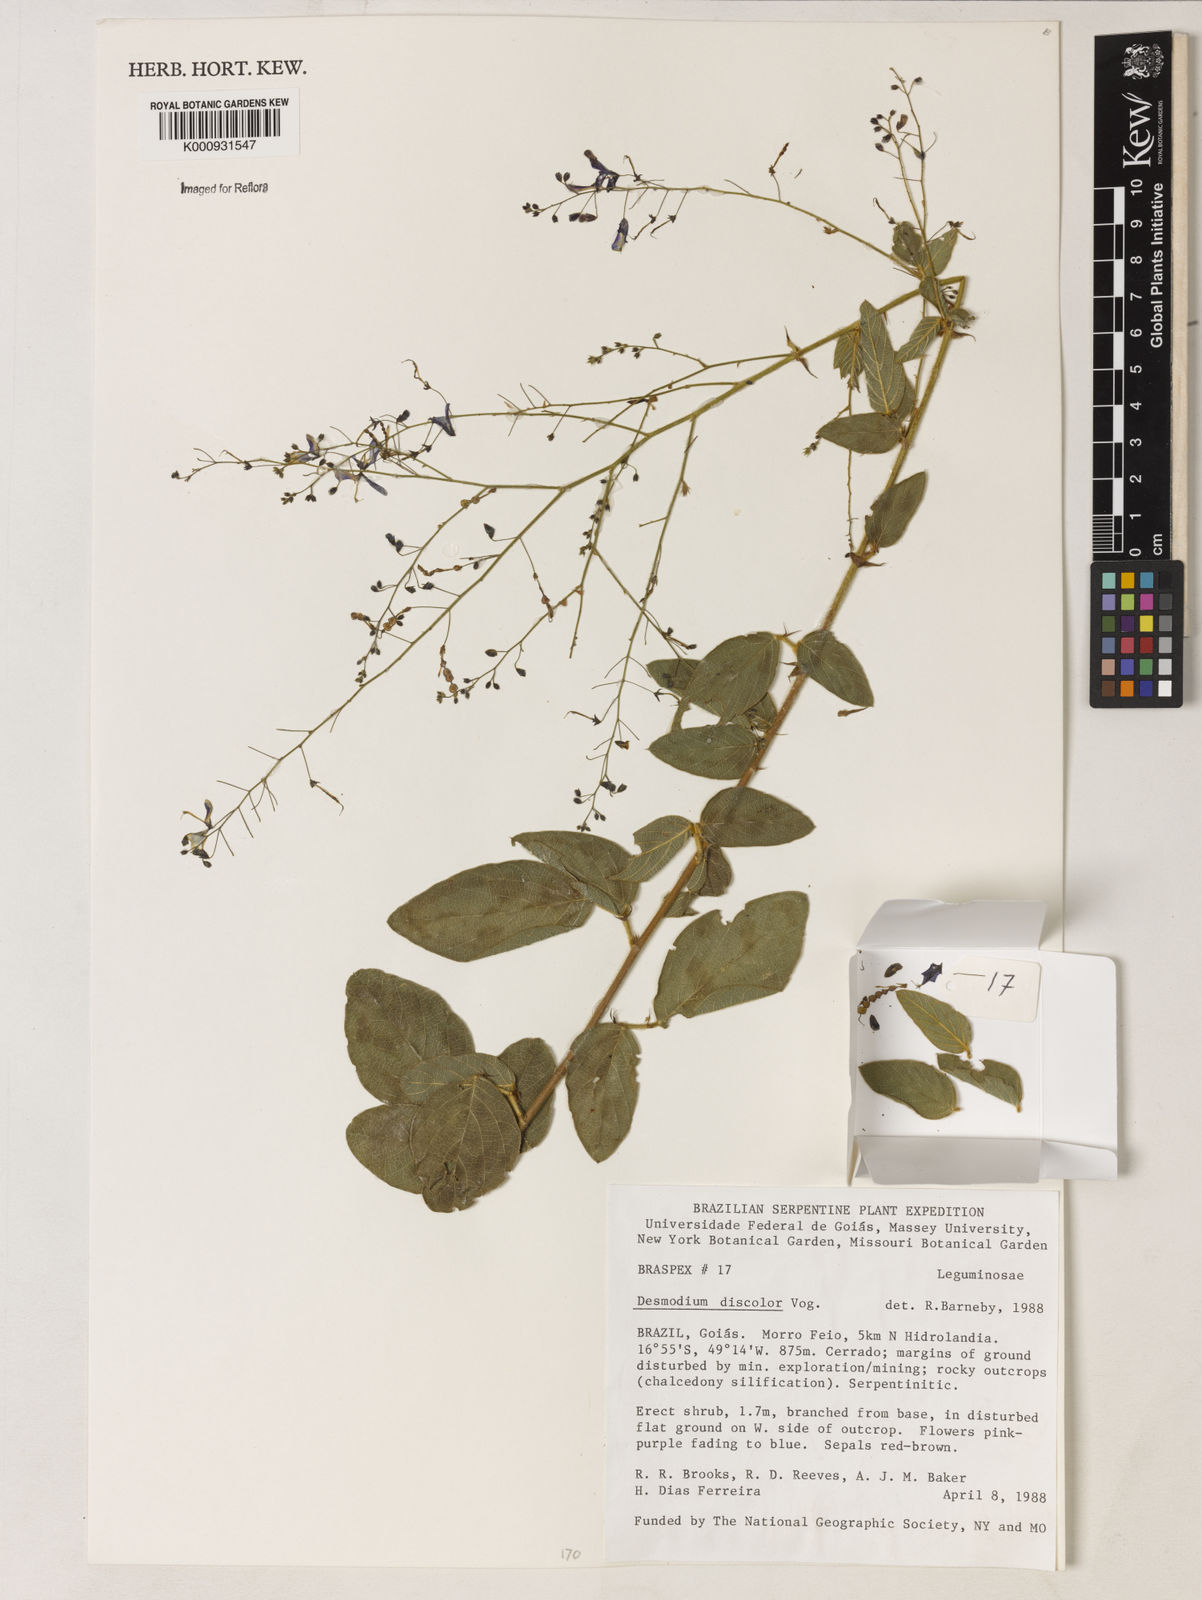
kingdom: Plantae
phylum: Tracheophyta
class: Magnoliopsida
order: Fabales
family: Fabaceae
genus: Desmodium
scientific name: Desmodium subsecundum
